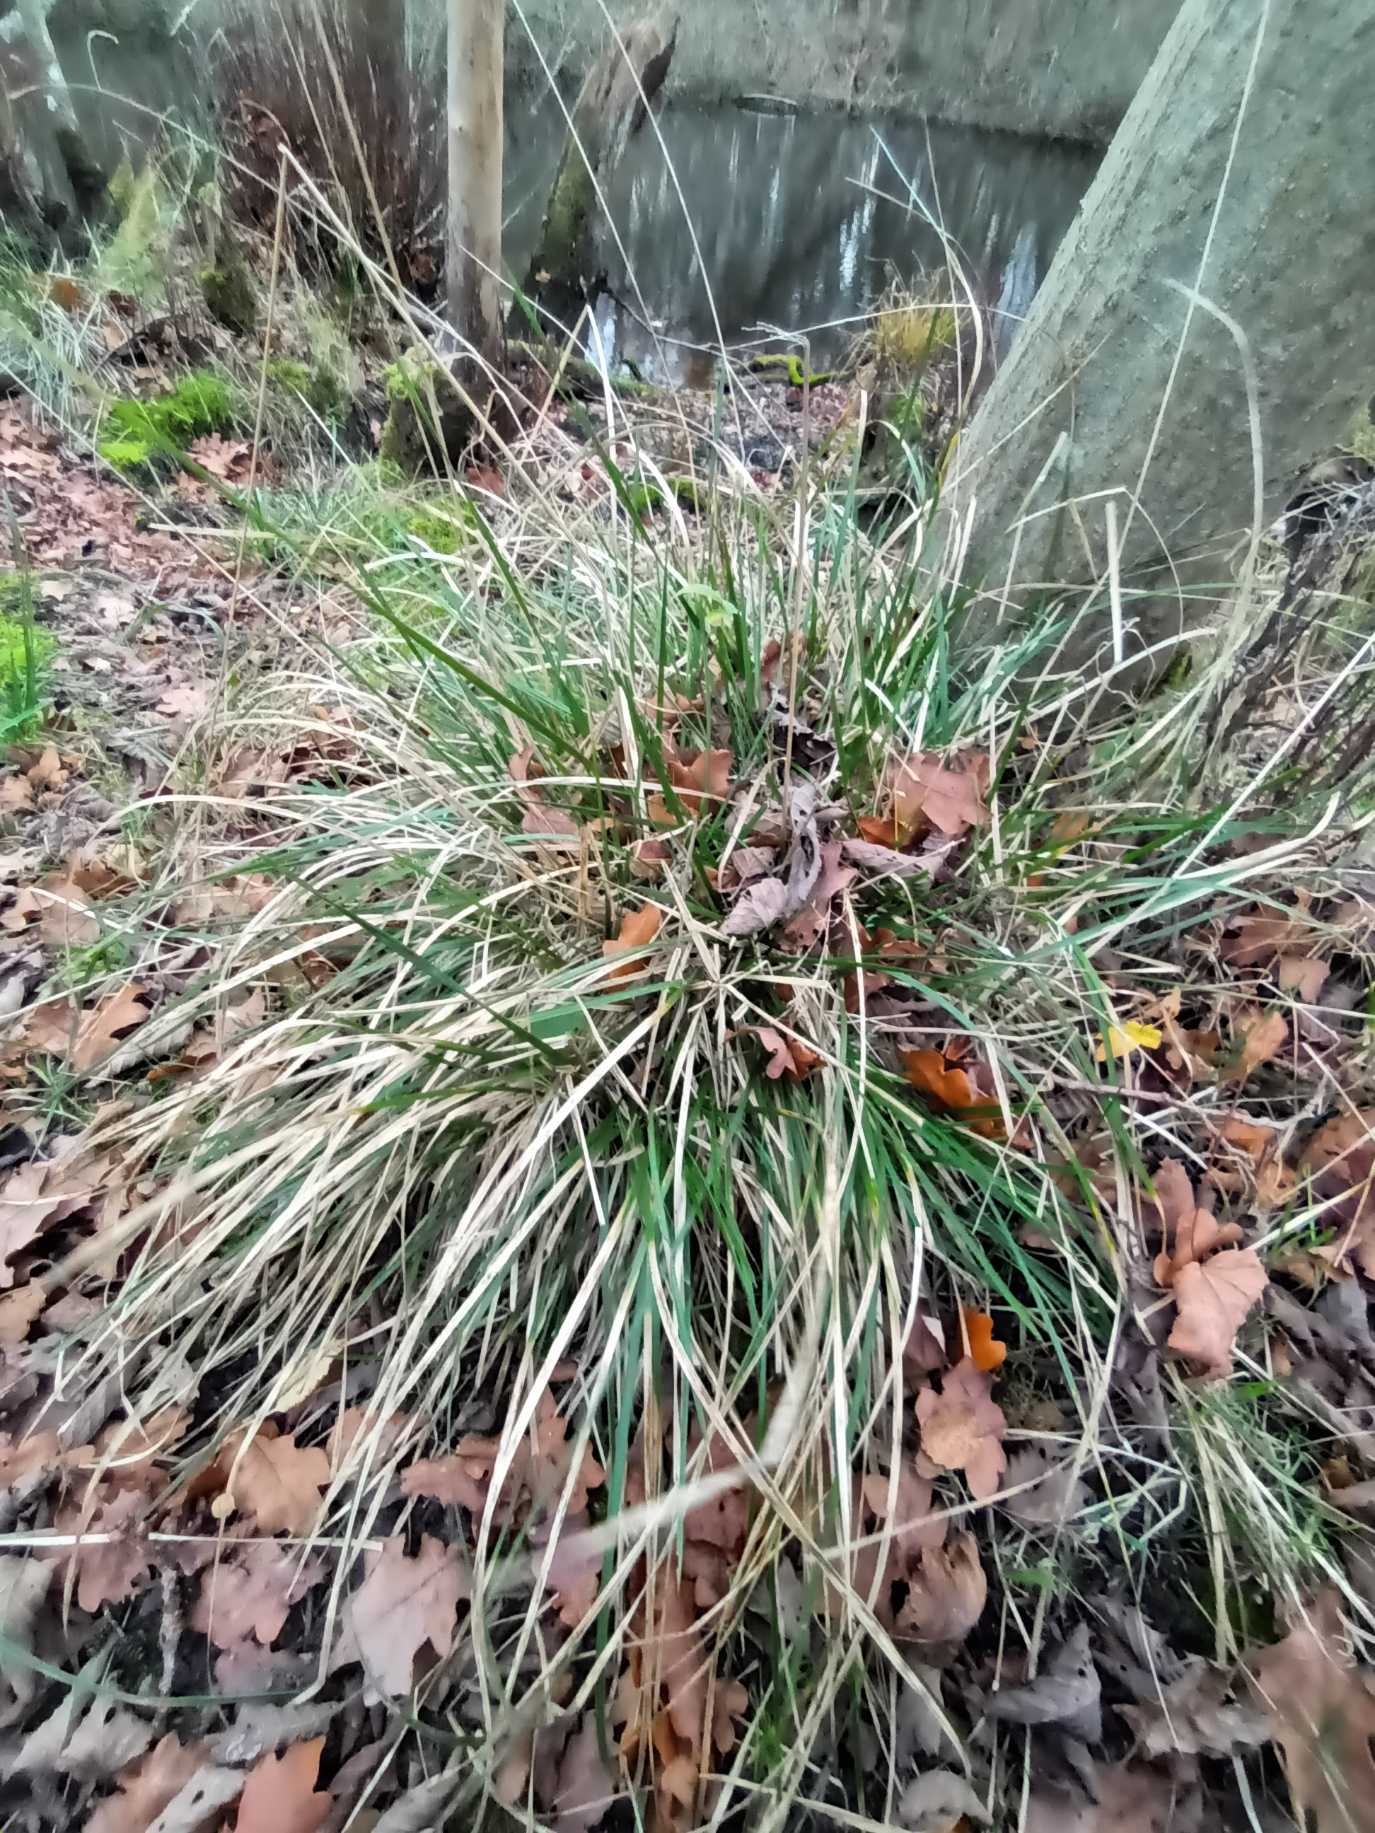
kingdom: Plantae
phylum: Tracheophyta
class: Liliopsida
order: Poales
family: Poaceae
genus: Deschampsia
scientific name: Deschampsia cespitosa
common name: Mose-bunke
